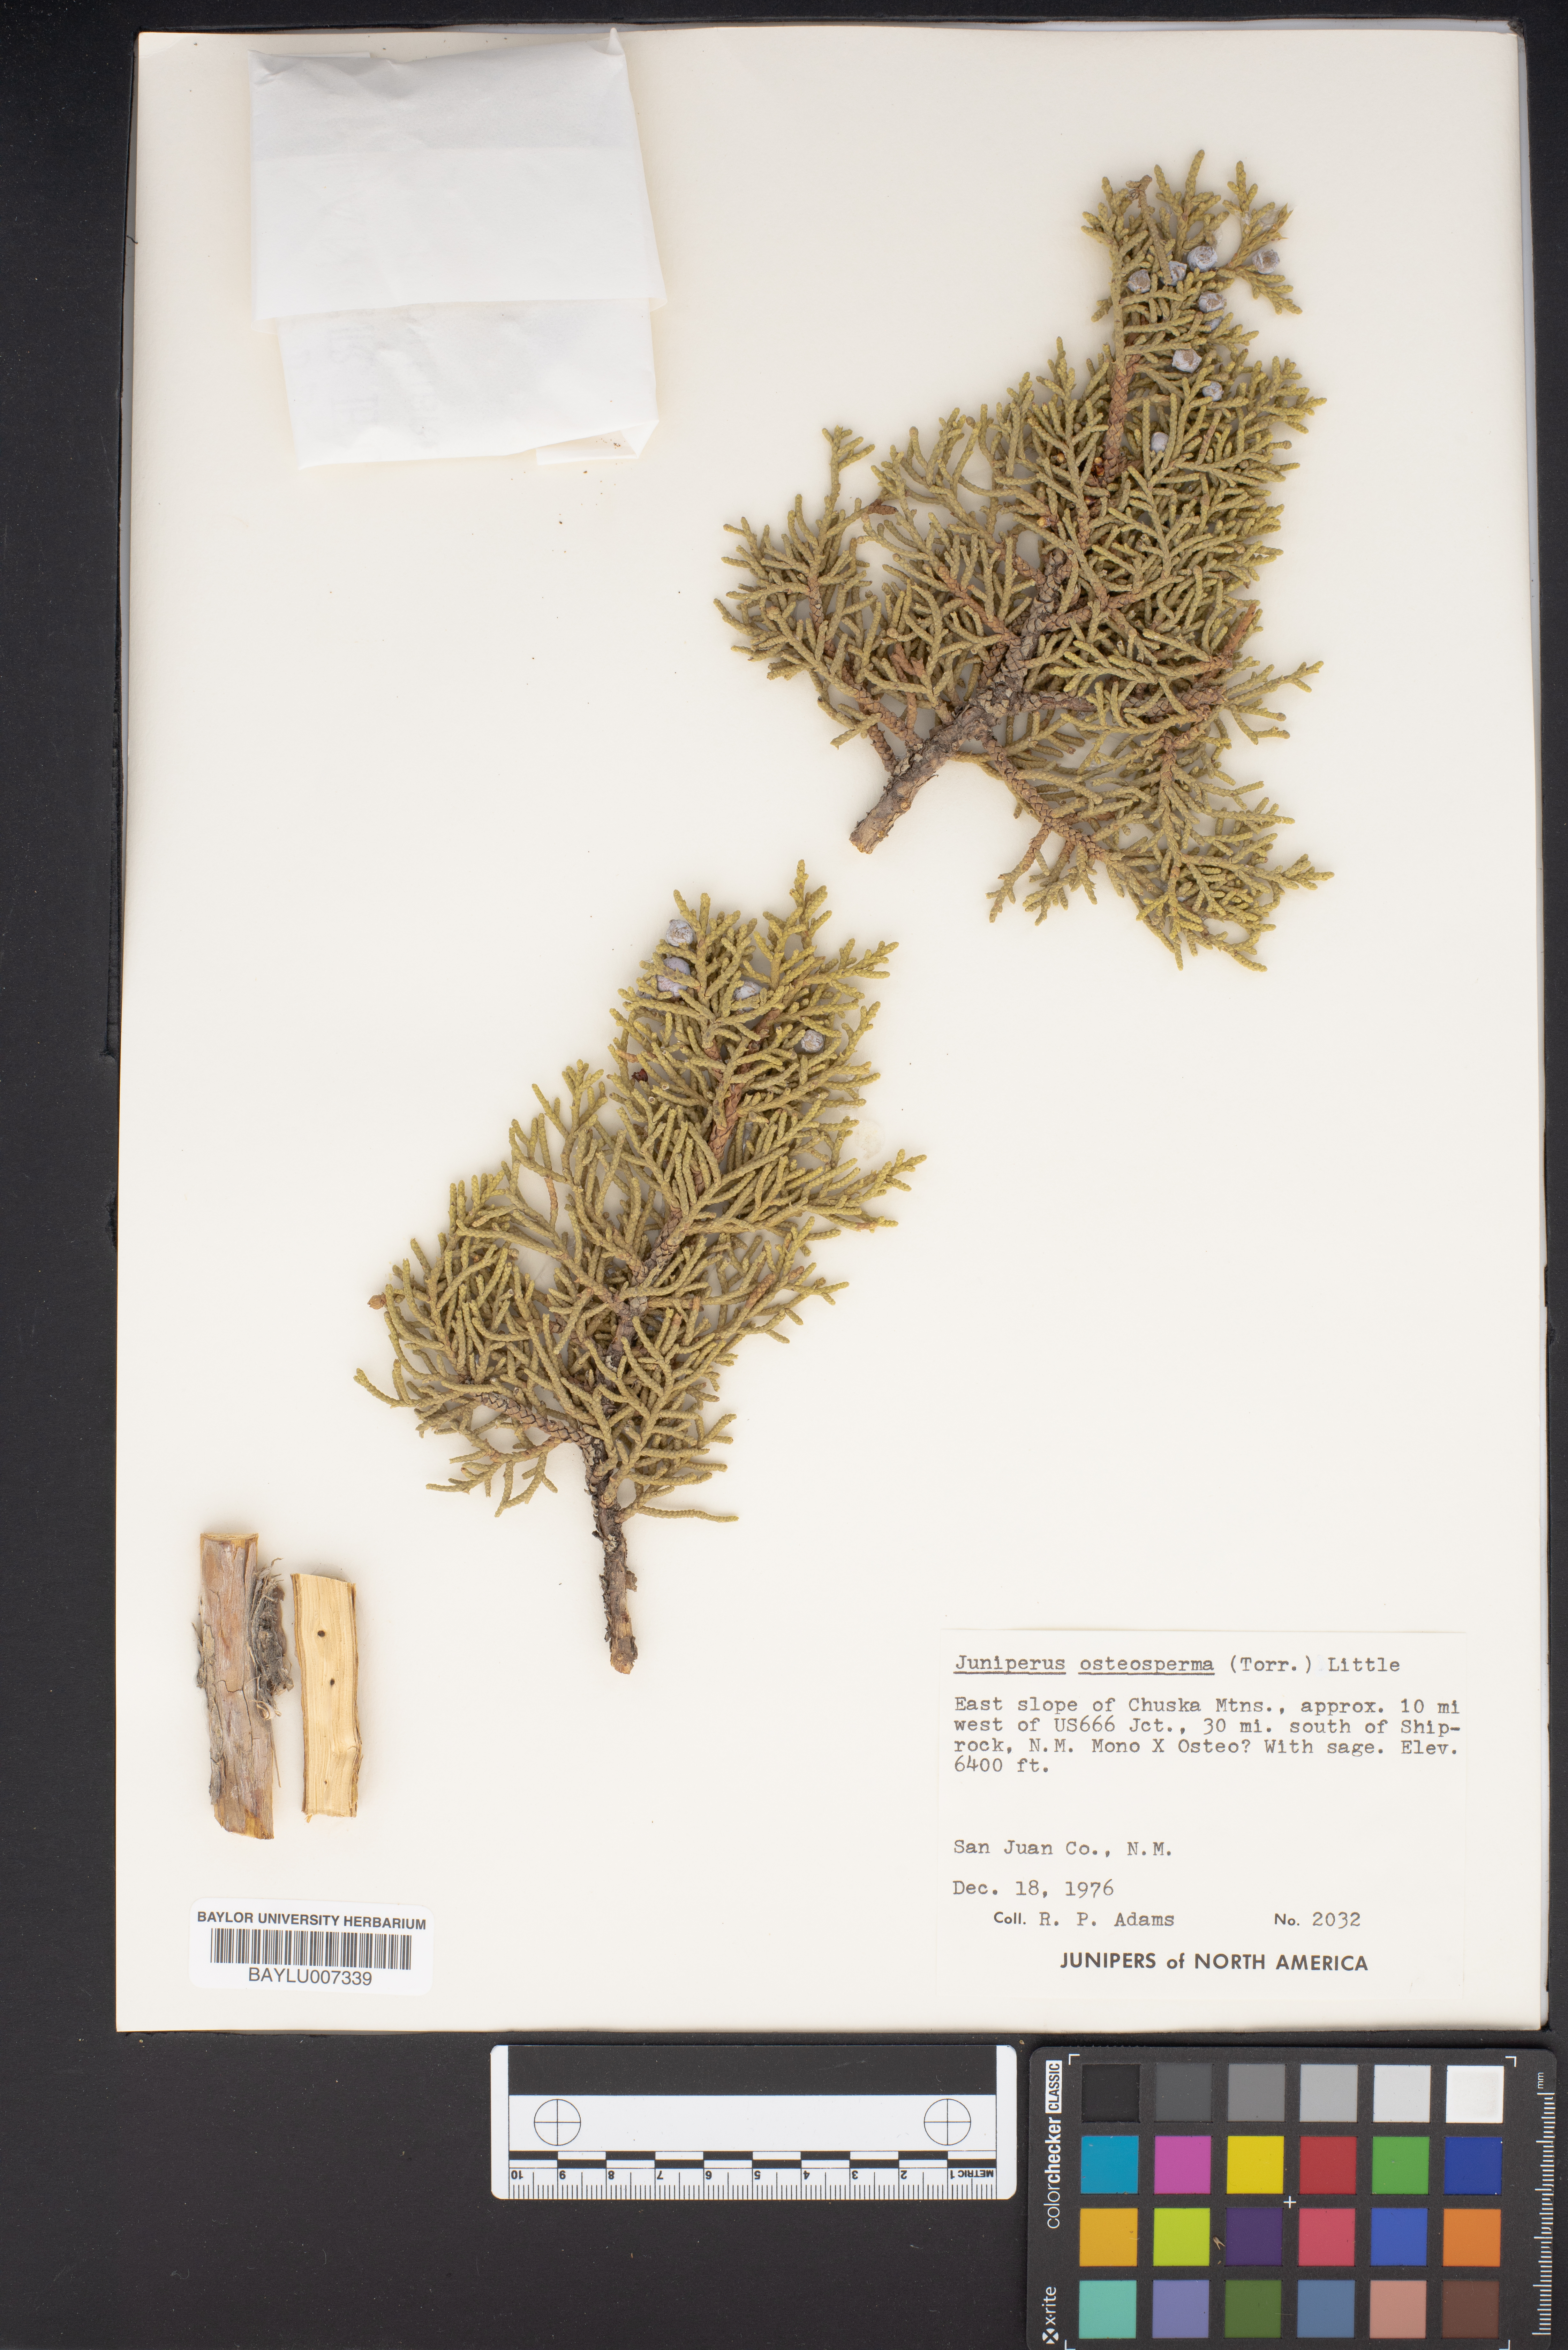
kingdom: Plantae
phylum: Tracheophyta
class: Pinopsida
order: Pinales
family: Cupressaceae
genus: Juniperus
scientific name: Juniperus osteosperma
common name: Utah juniper
